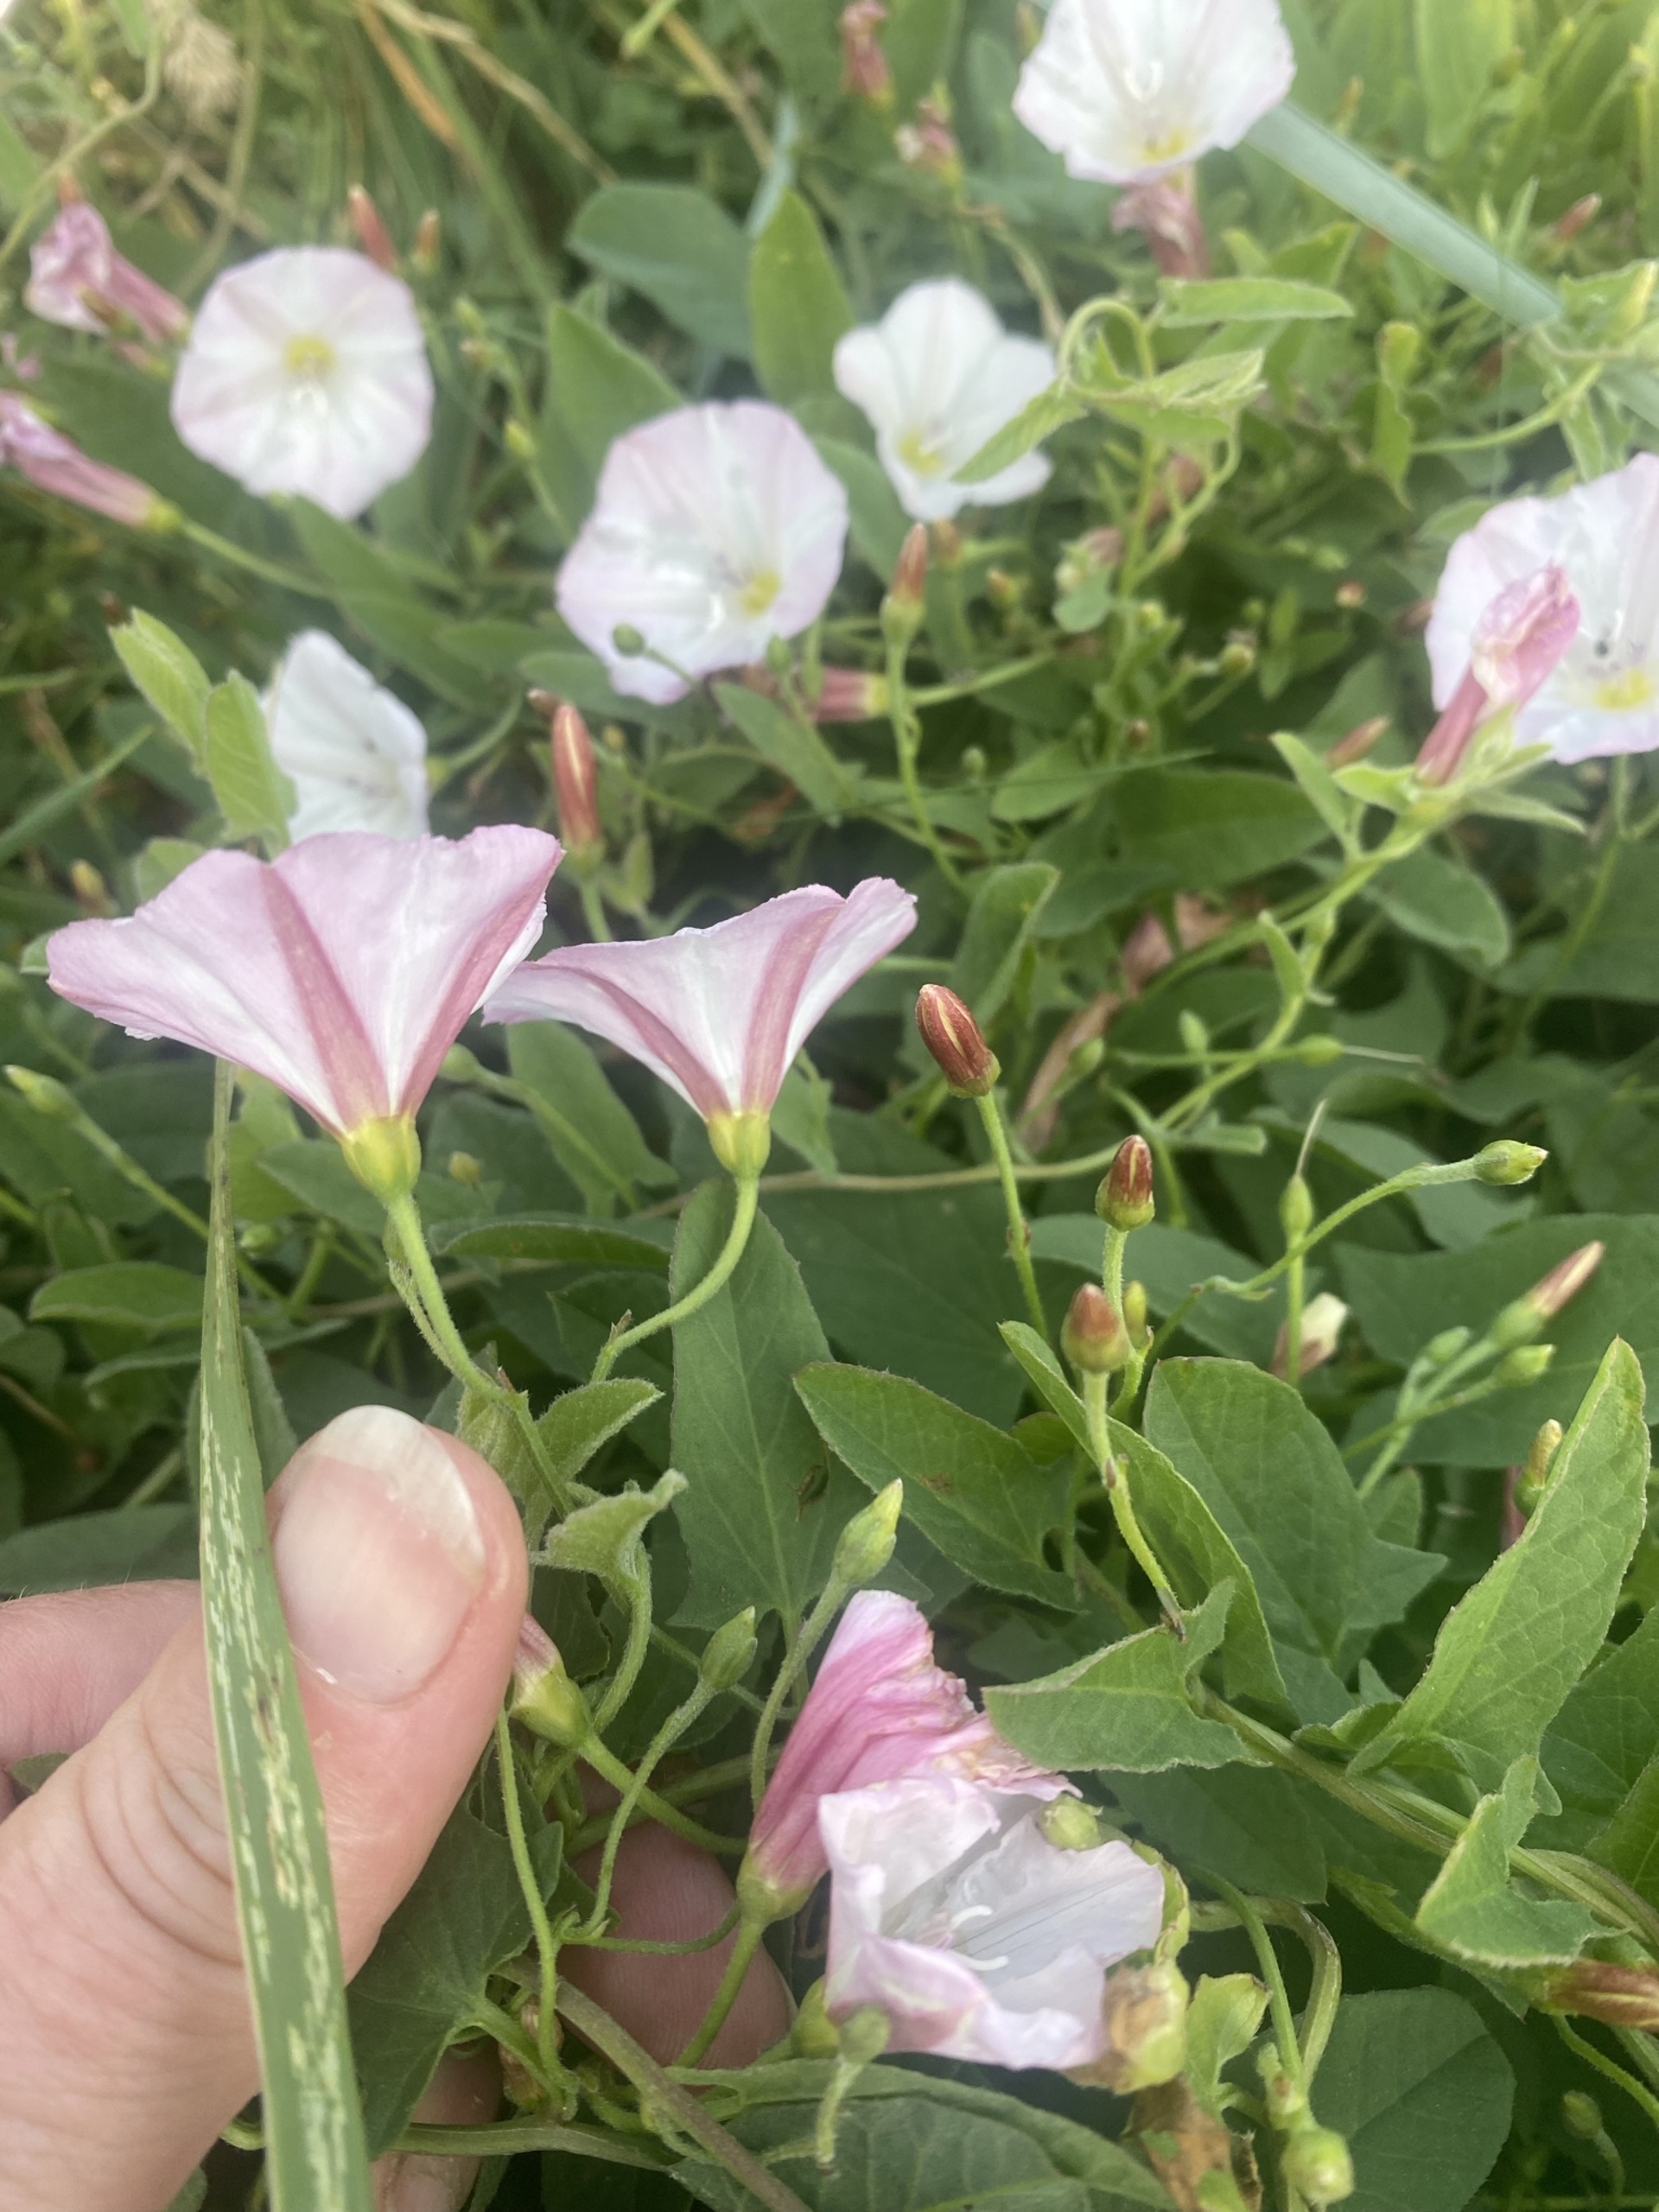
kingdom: Plantae
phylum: Tracheophyta
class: Magnoliopsida
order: Solanales
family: Convolvulaceae
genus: Convolvulus
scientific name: Convolvulus arvensis
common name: Ager-snerle
